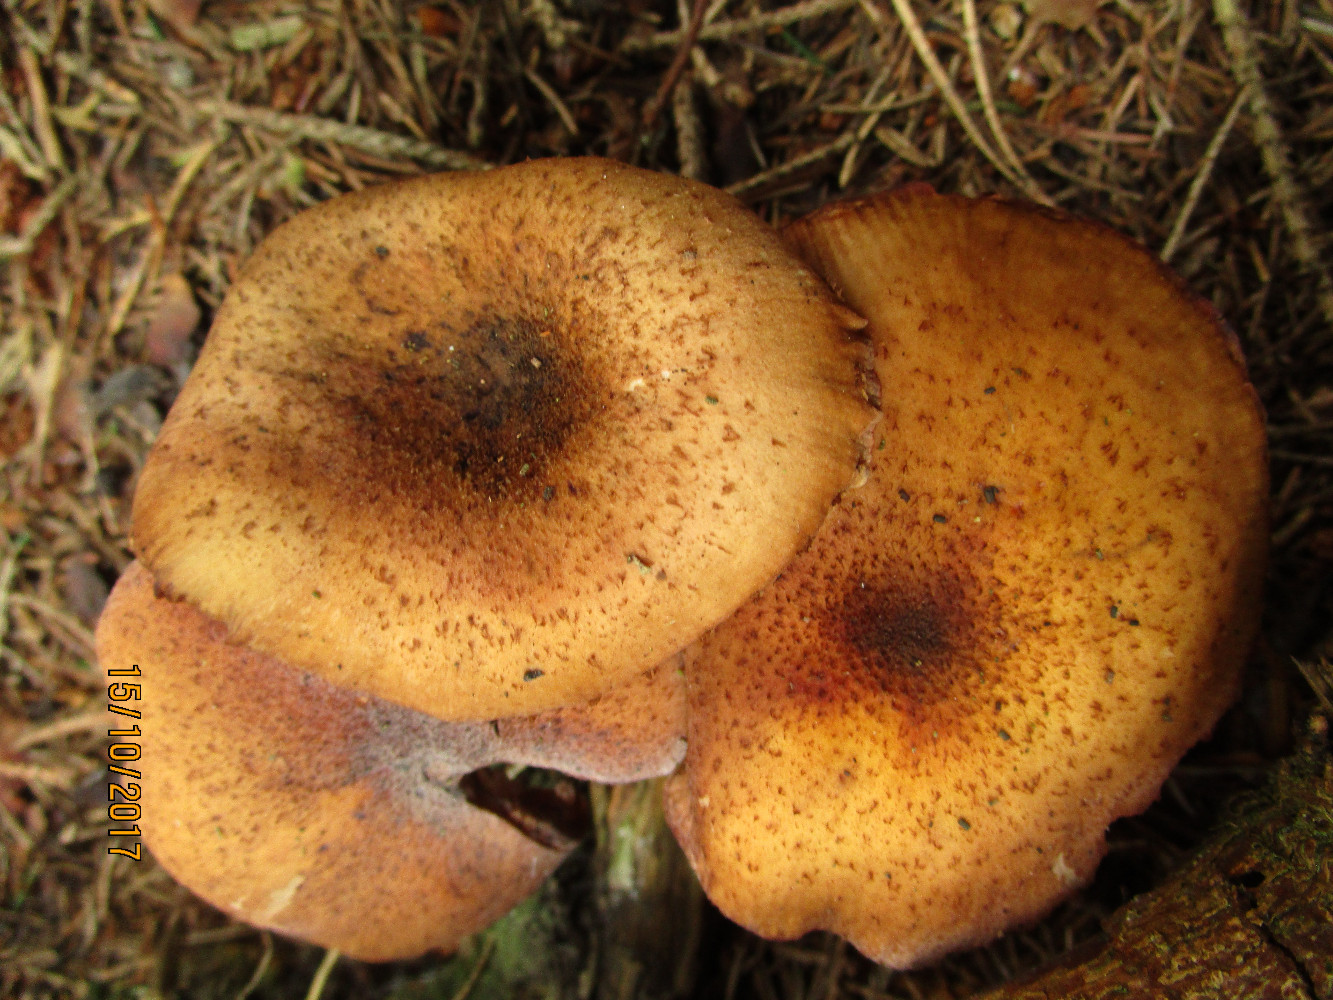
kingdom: Fungi
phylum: Basidiomycota
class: Agaricomycetes
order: Agaricales
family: Physalacriaceae
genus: Armillaria
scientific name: Armillaria ostoyae
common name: mørk honningsvamp
